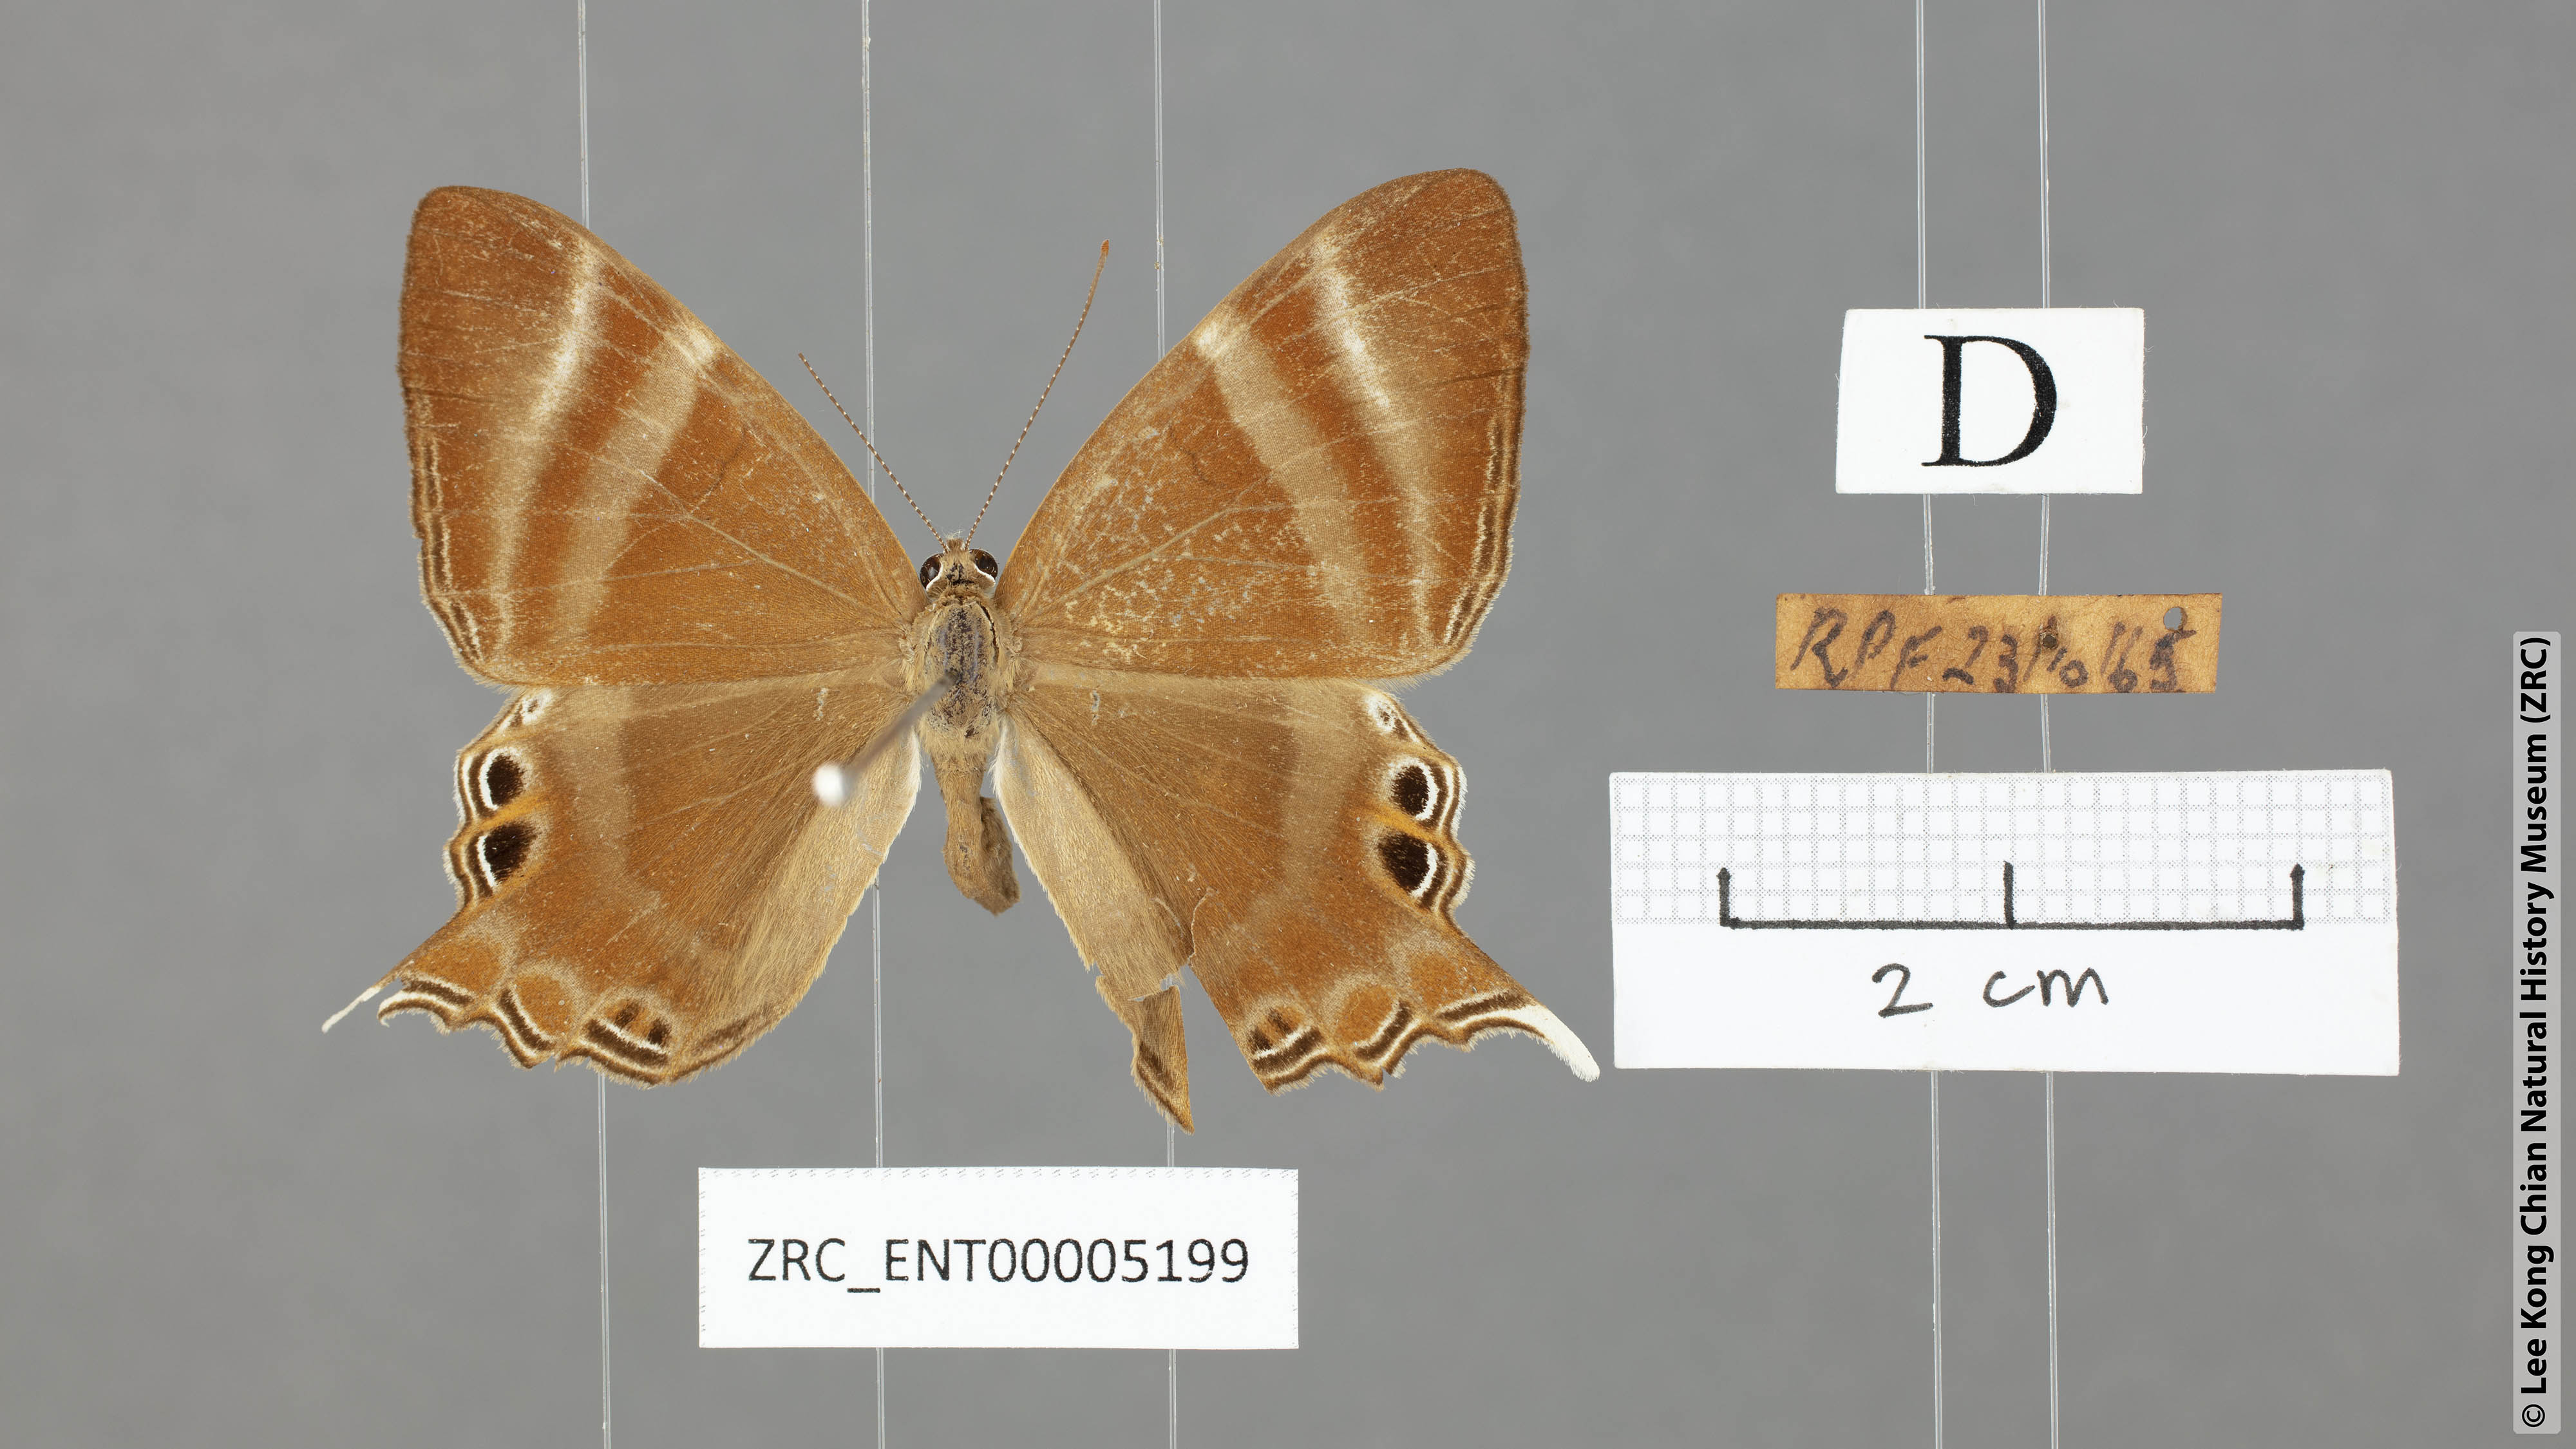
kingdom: Animalia
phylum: Arthropoda
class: Insecta
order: Lepidoptera
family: Riodinidae
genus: Archigenes
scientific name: Archigenes savitri
